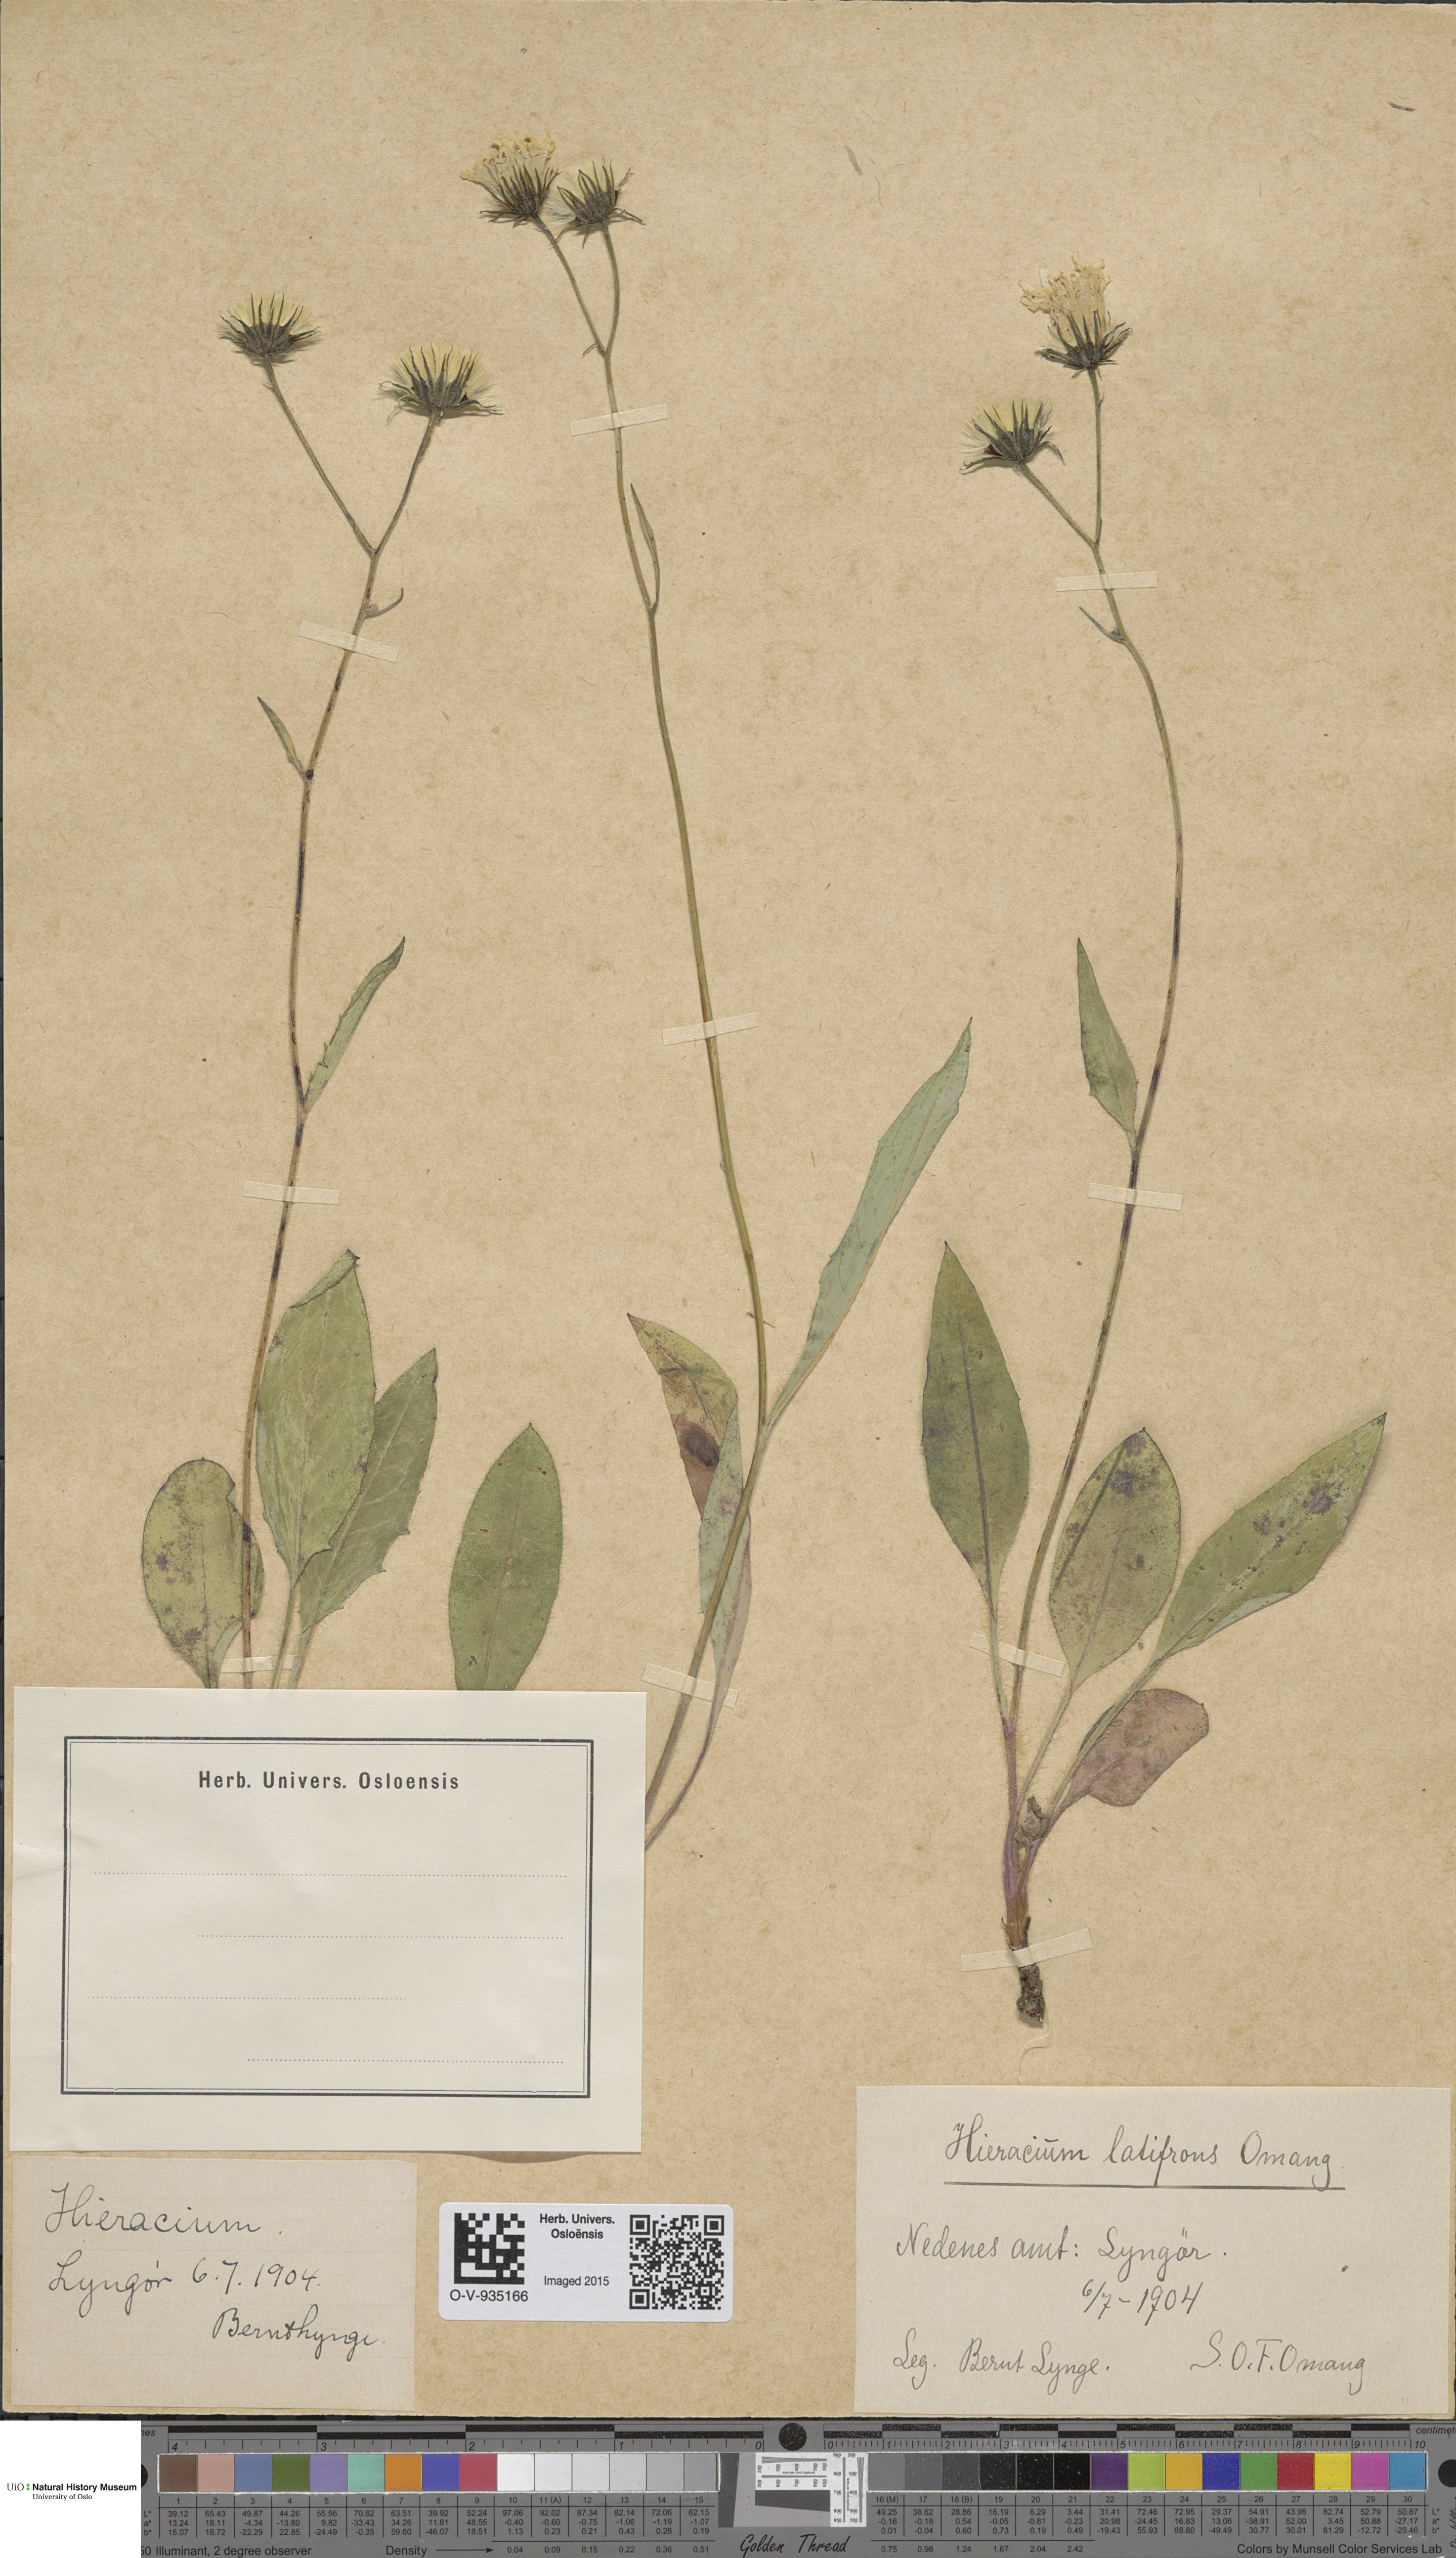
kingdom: Plantae
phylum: Tracheophyta
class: Magnoliopsida
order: Asterales
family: Asteraceae
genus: Hieracium
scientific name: Hieracium saxifragum
